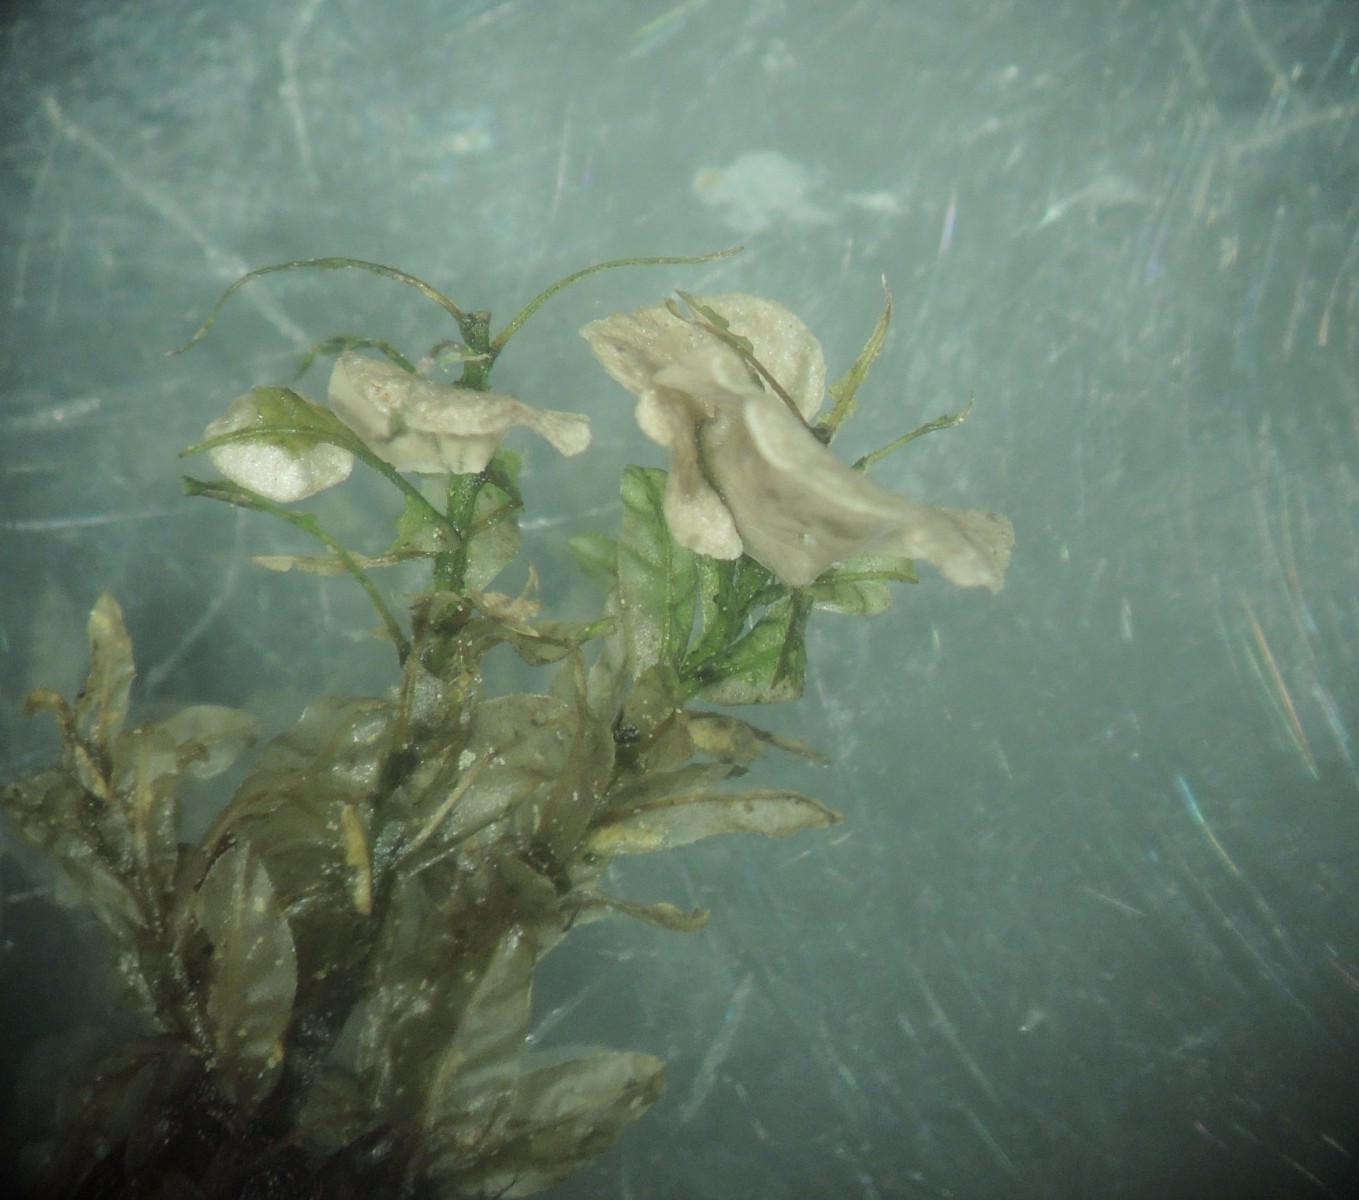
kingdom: Fungi
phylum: Basidiomycota
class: Agaricomycetes
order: Agaricales
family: Hygrophoraceae
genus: Arrhenia
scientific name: Arrhenia retiruga
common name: lille fontænehat
